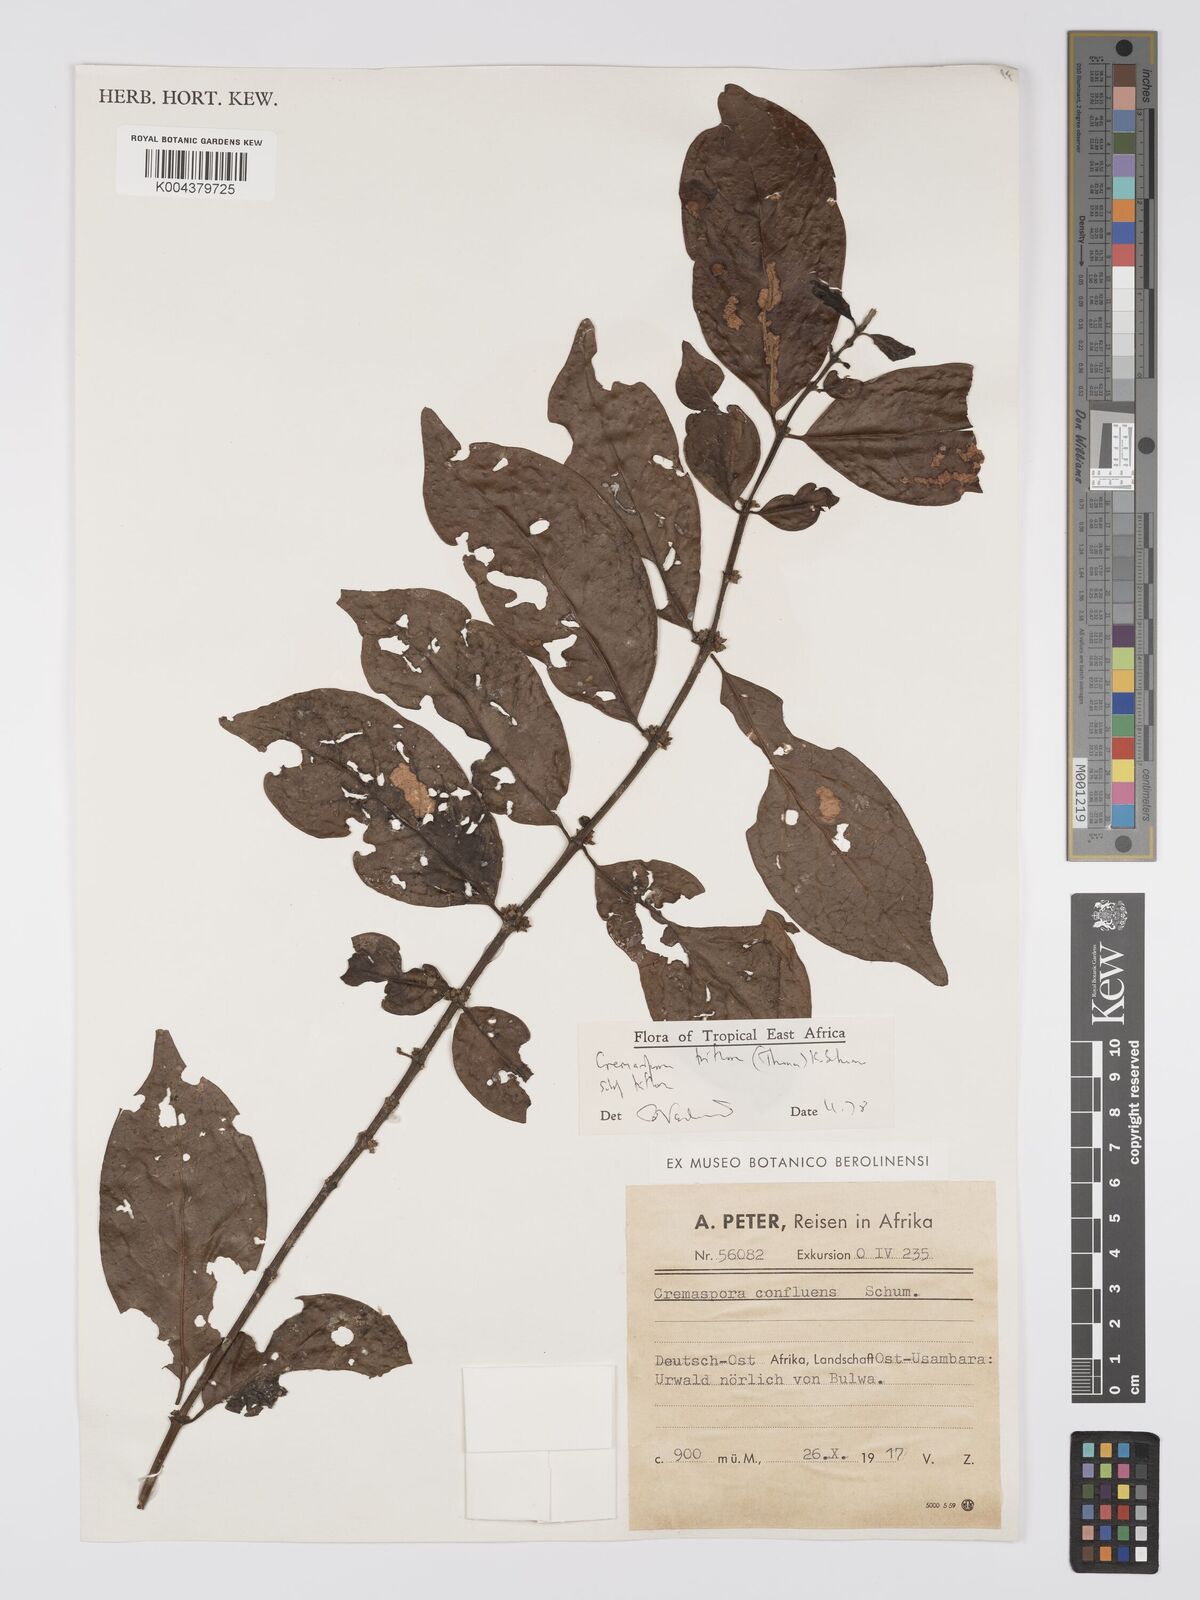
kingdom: Plantae
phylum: Tracheophyta
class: Magnoliopsida
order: Gentianales
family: Rubiaceae
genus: Cremaspora
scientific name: Cremaspora triflora
